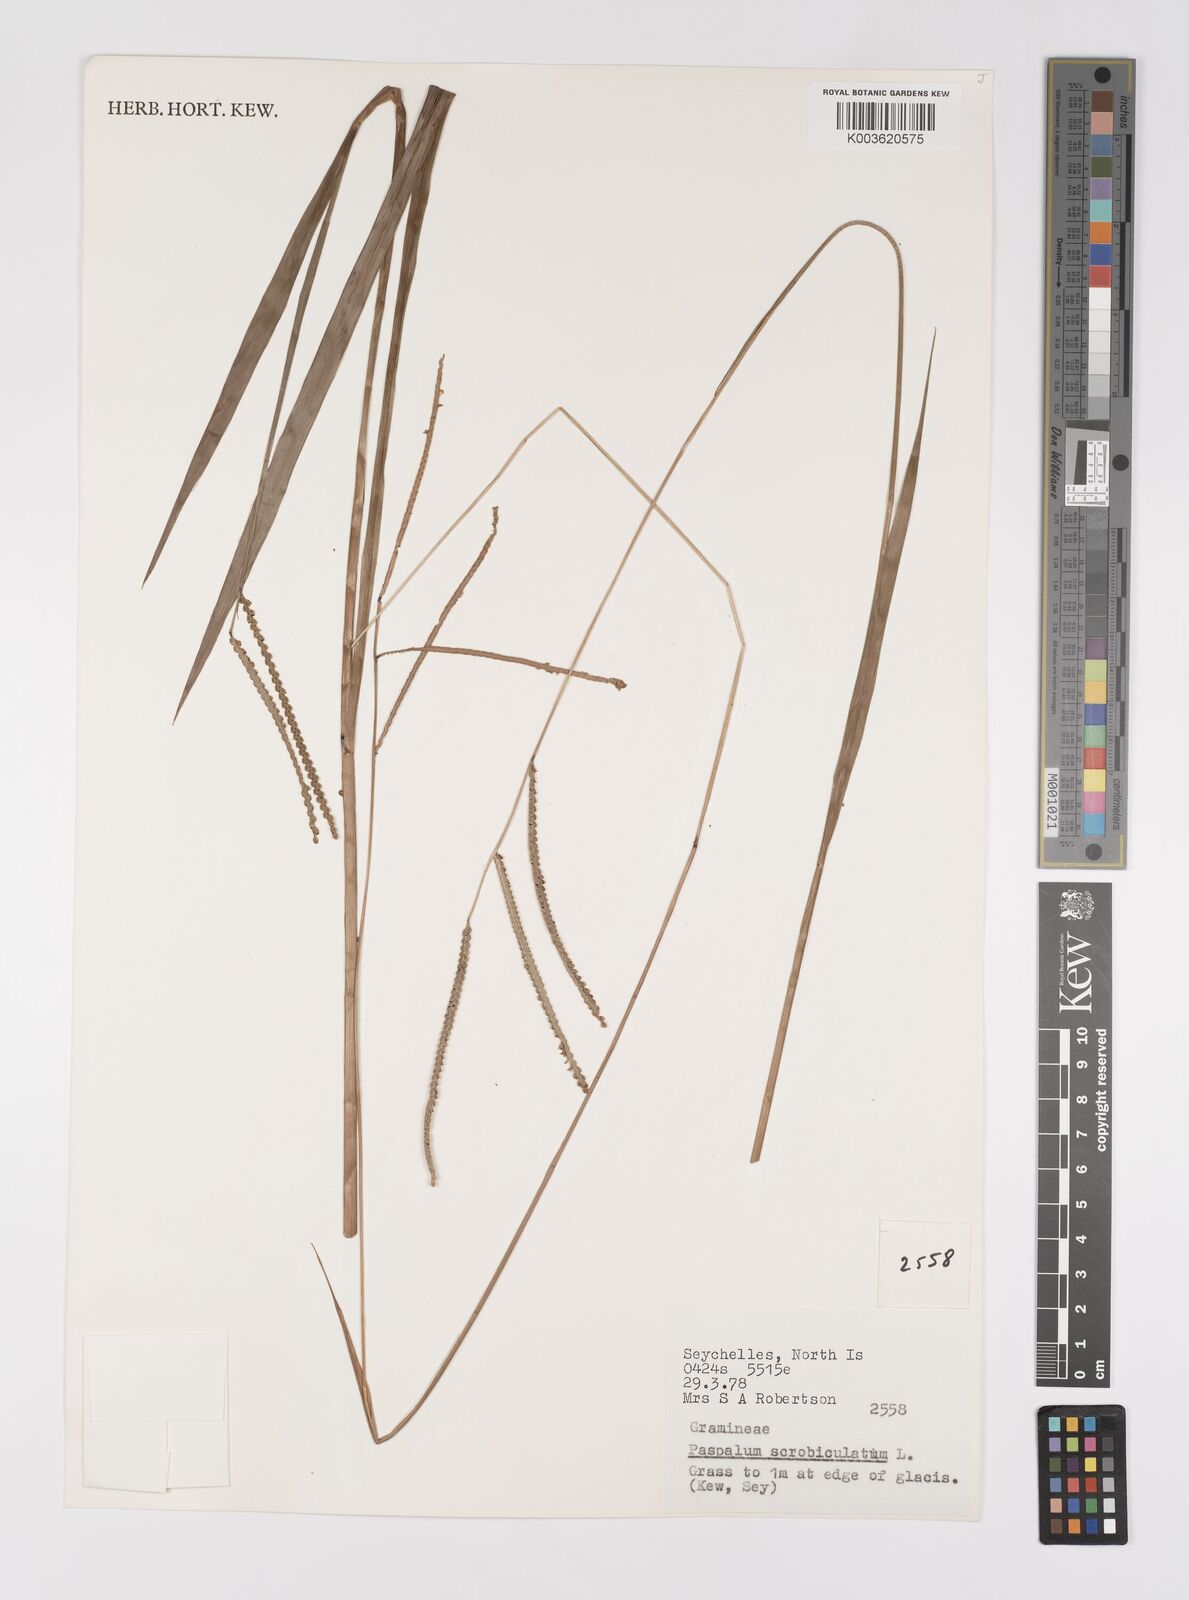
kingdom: Plantae
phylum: Tracheophyta
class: Liliopsida
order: Poales
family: Poaceae
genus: Paspalum
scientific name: Paspalum scrobiculatum
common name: Kodo millet
